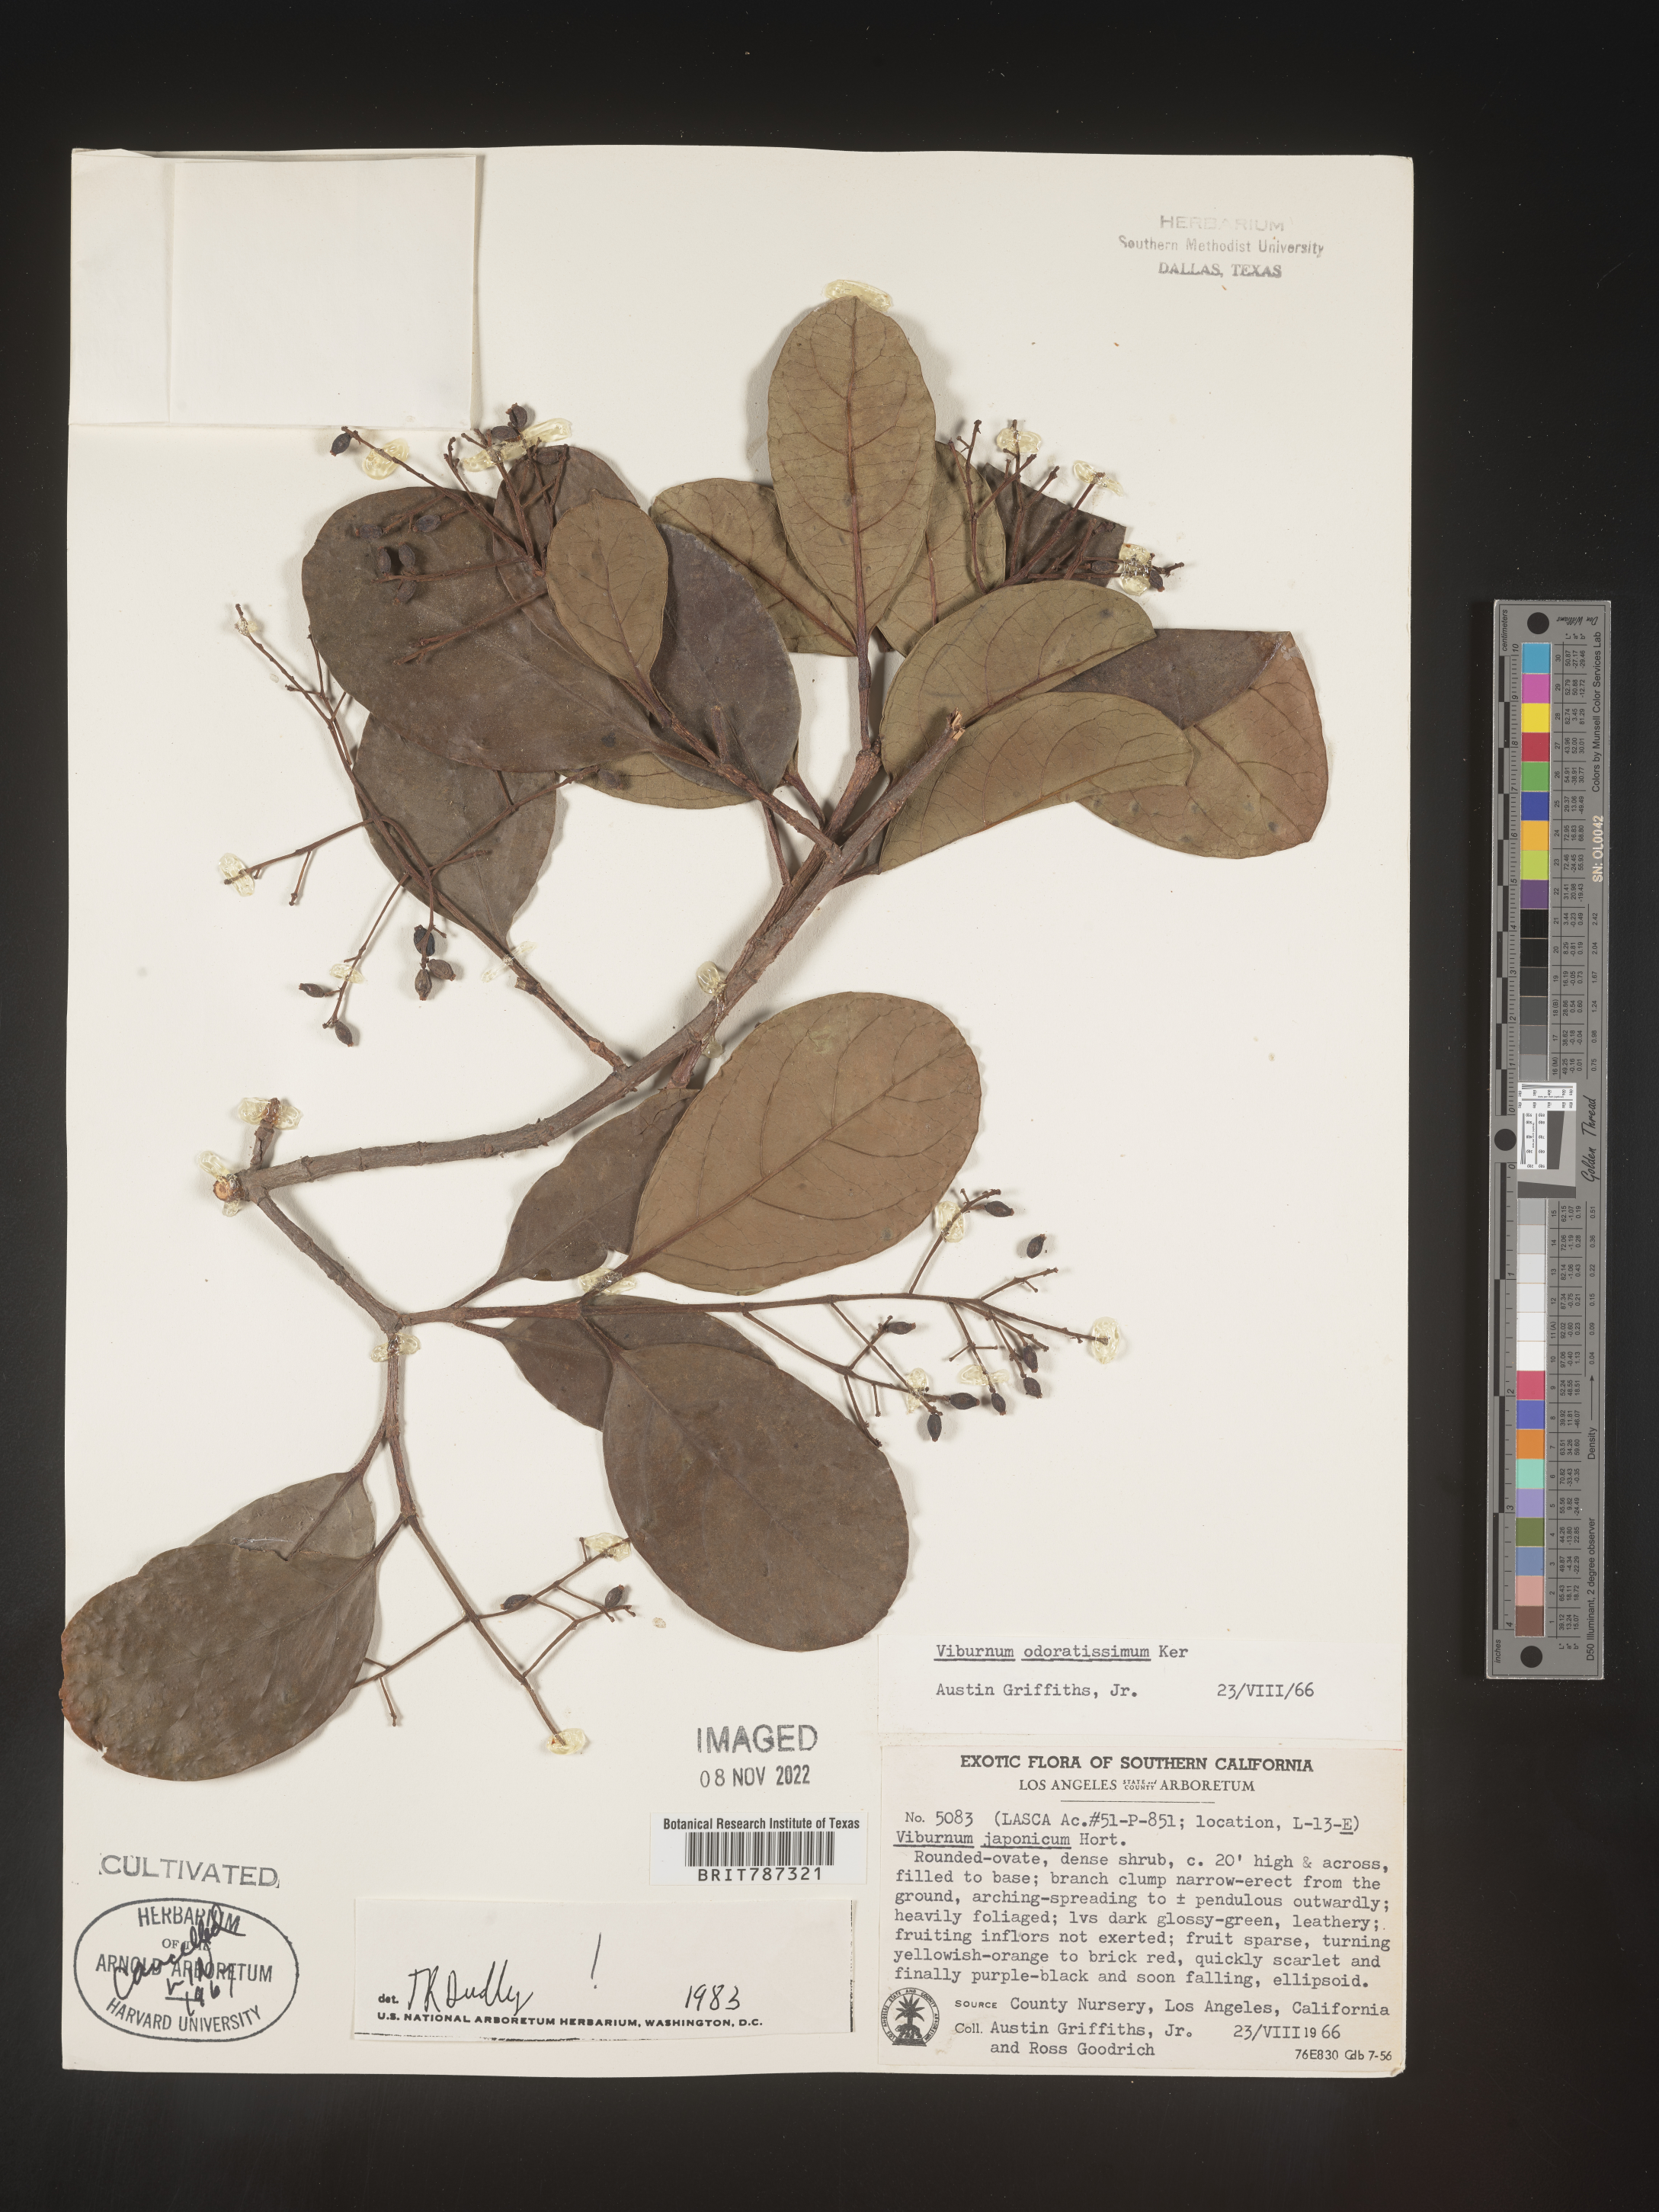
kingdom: Plantae
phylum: Tracheophyta
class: Magnoliopsida
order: Dipsacales
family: Viburnaceae
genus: Viburnum
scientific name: Viburnum
